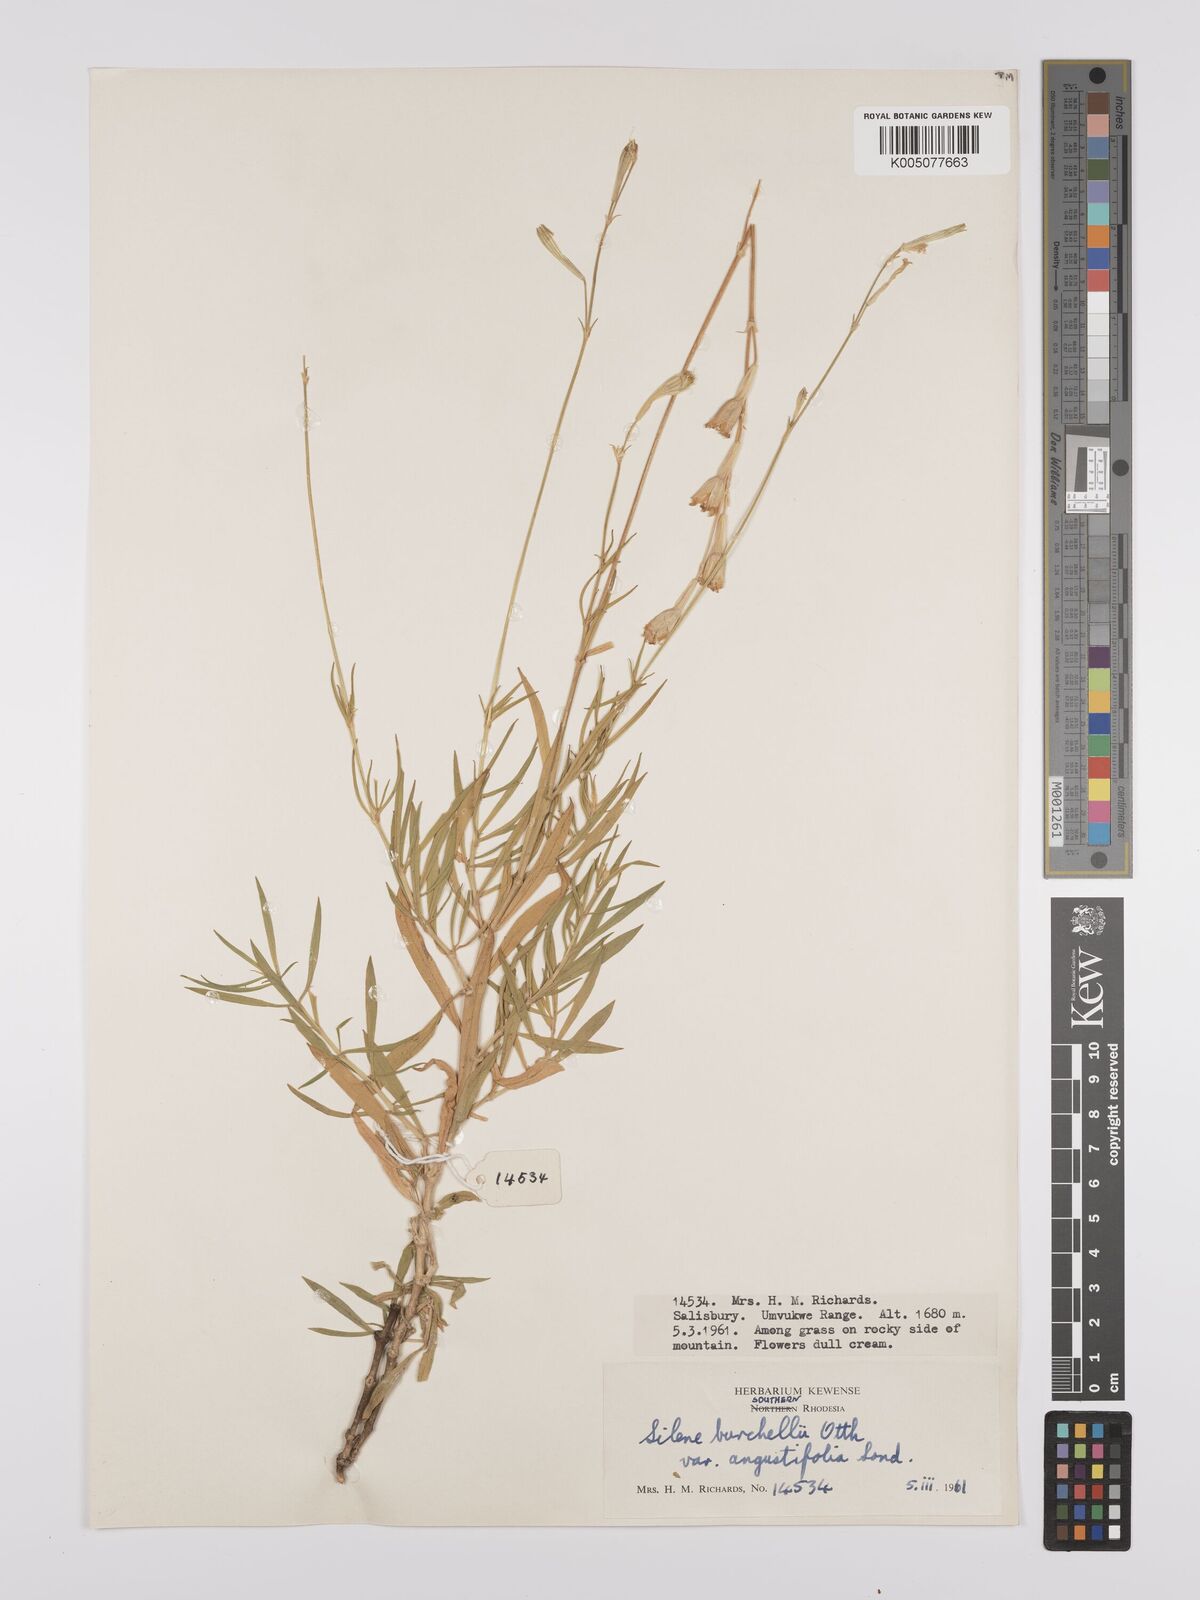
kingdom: Plantae
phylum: Tracheophyta
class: Magnoliopsida
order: Caryophyllales
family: Caryophyllaceae
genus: Silene
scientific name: Silene burchellii
